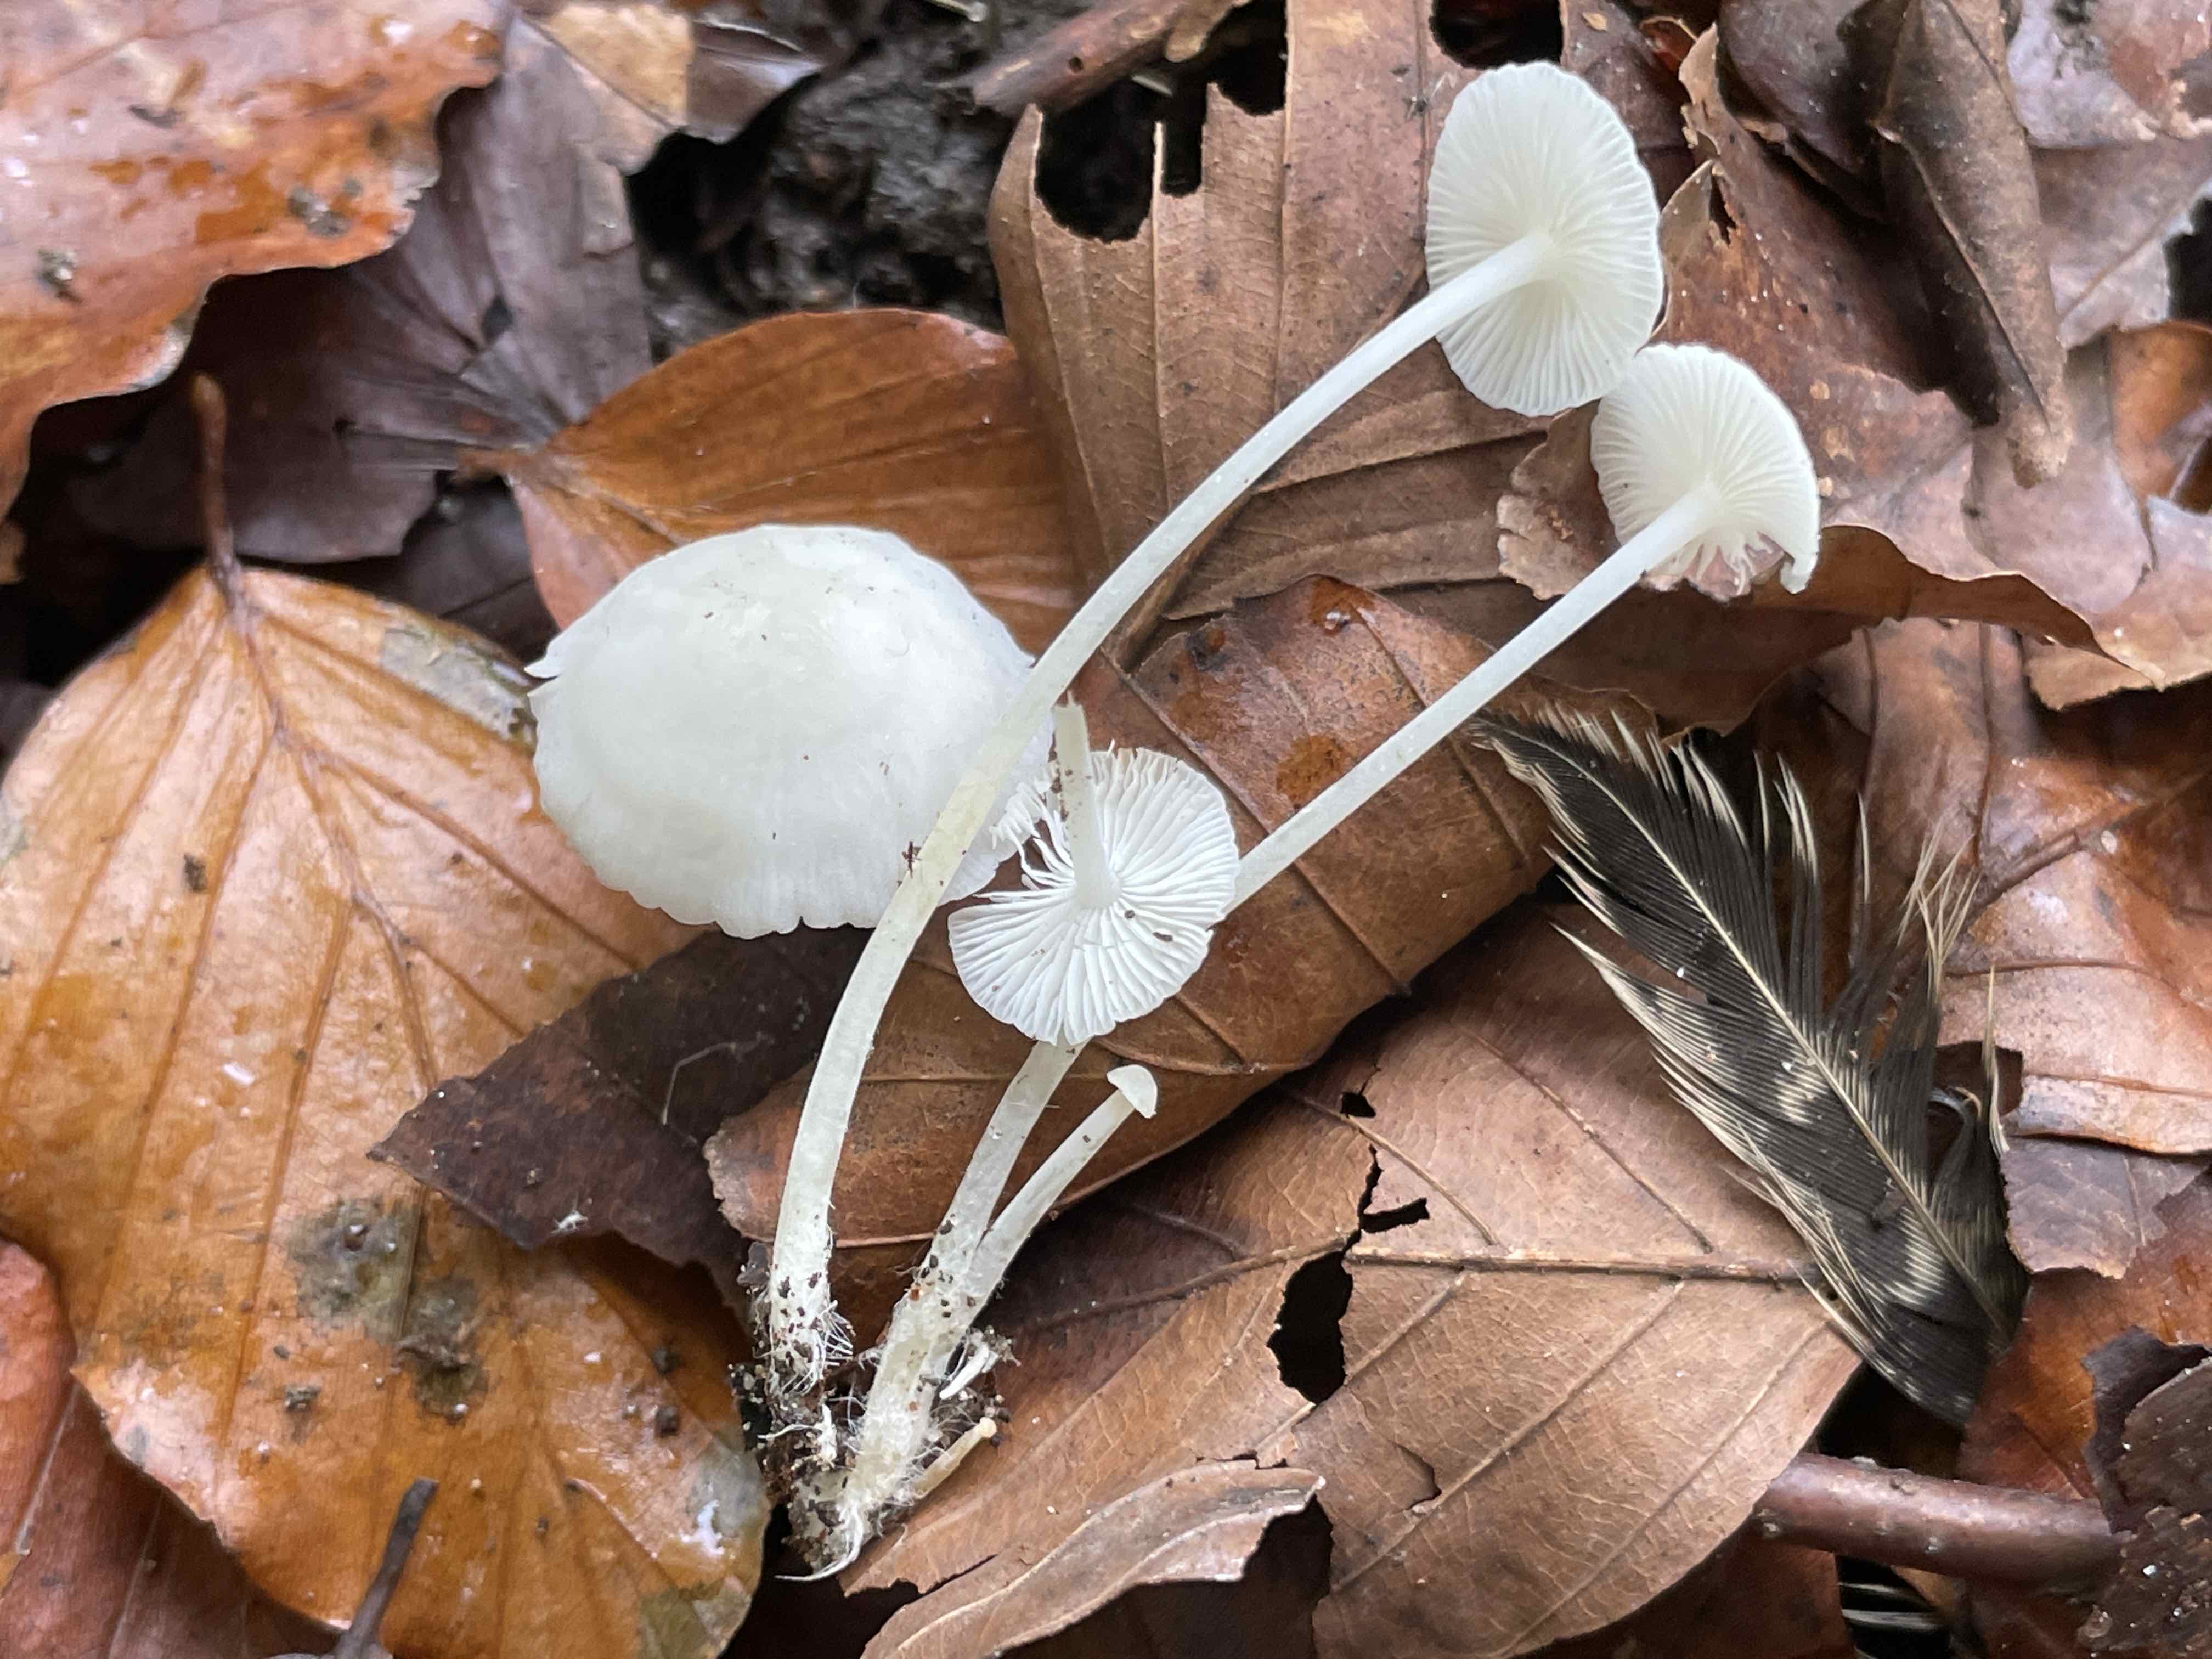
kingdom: Fungi
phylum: Basidiomycota
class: Agaricomycetes
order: Agaricales
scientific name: Agaricales
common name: champignonordenen
